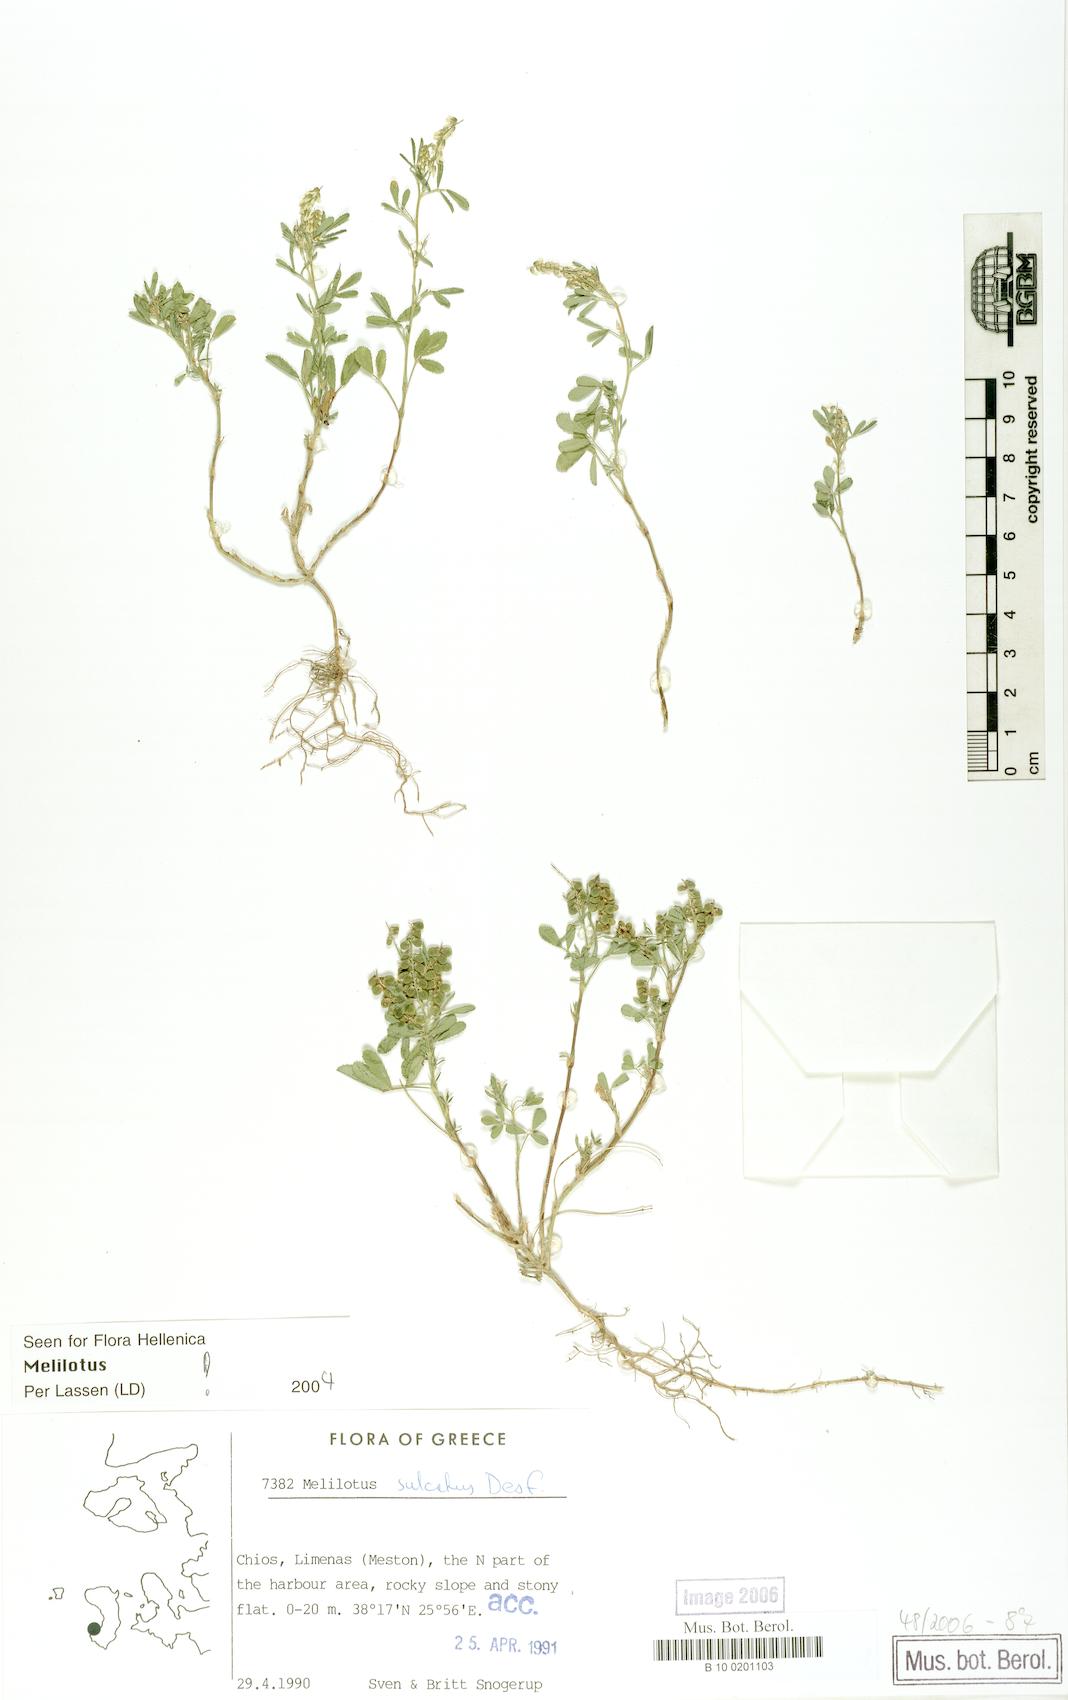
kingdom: Plantae
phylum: Tracheophyta
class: Magnoliopsida
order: Fabales
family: Fabaceae
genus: Melilotus
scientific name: Melilotus sulcatus
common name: Furrowed melilot
